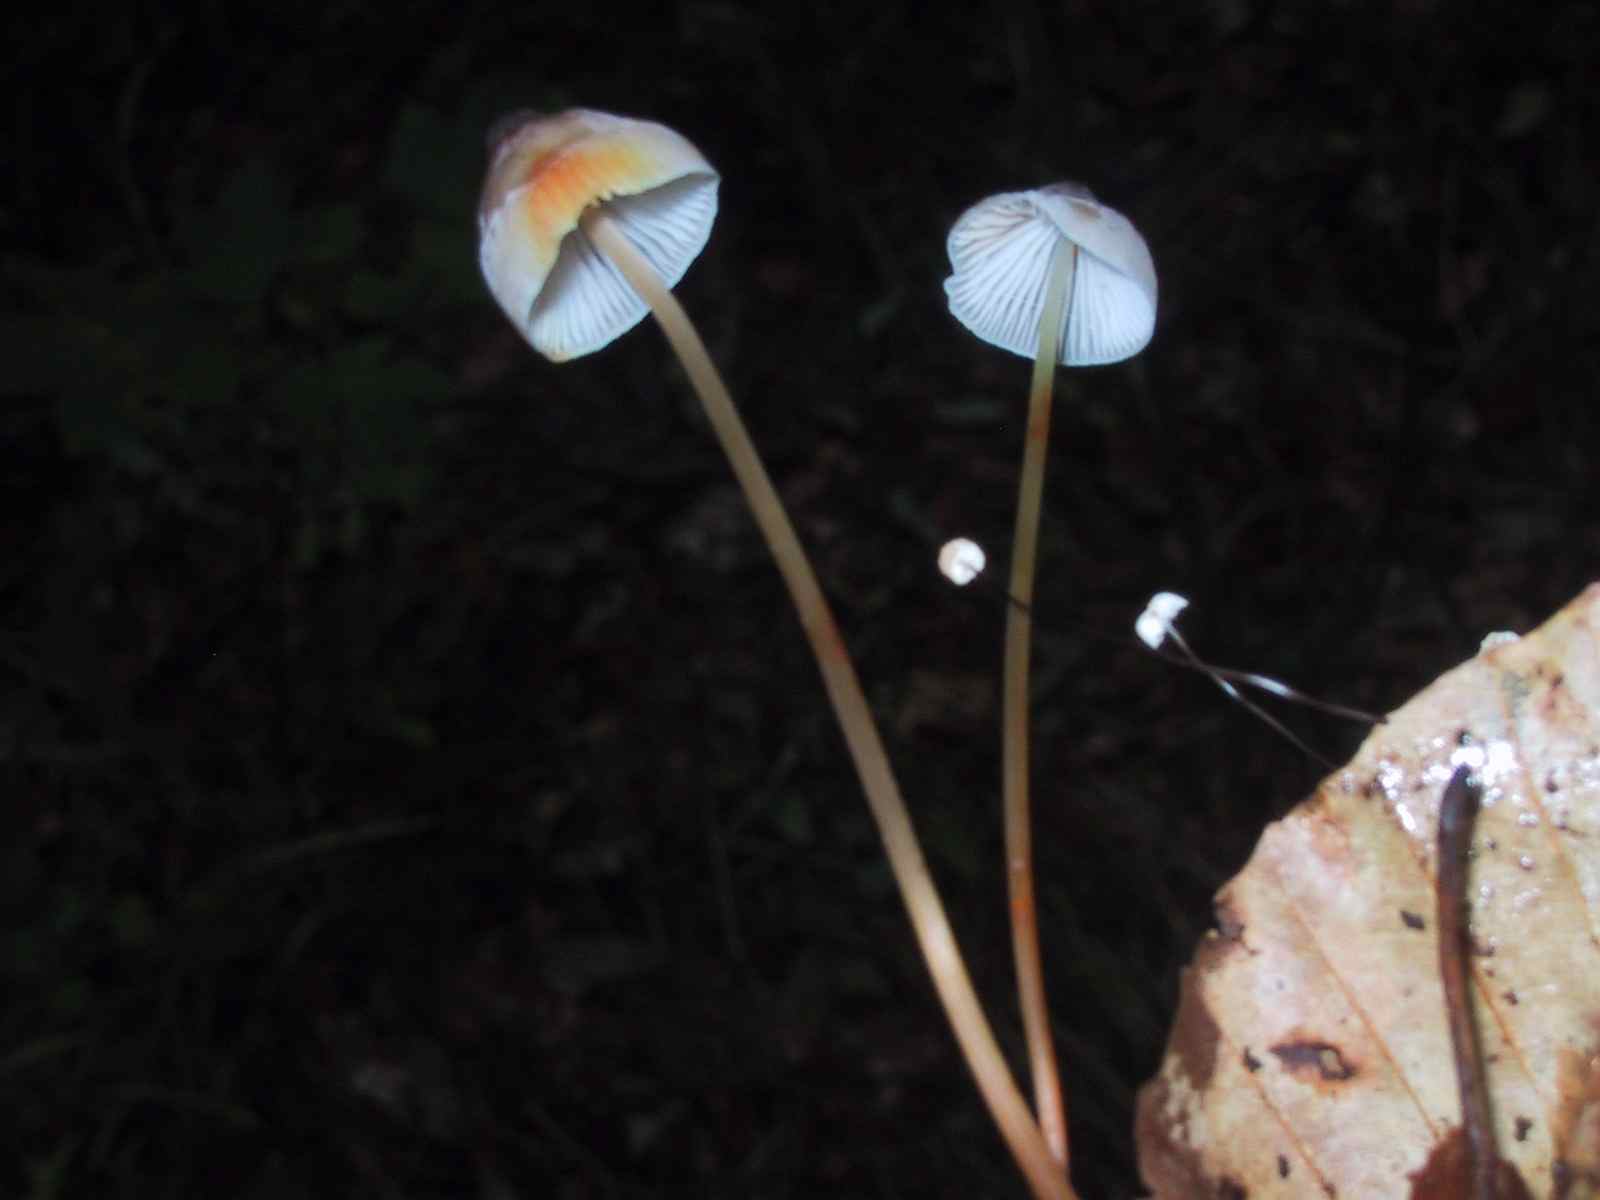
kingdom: Fungi
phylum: Basidiomycota
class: Agaricomycetes
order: Agaricales
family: Omphalotaceae
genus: Gymnopus
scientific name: Gymnopus androsaceus
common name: trådstokket fladhat
